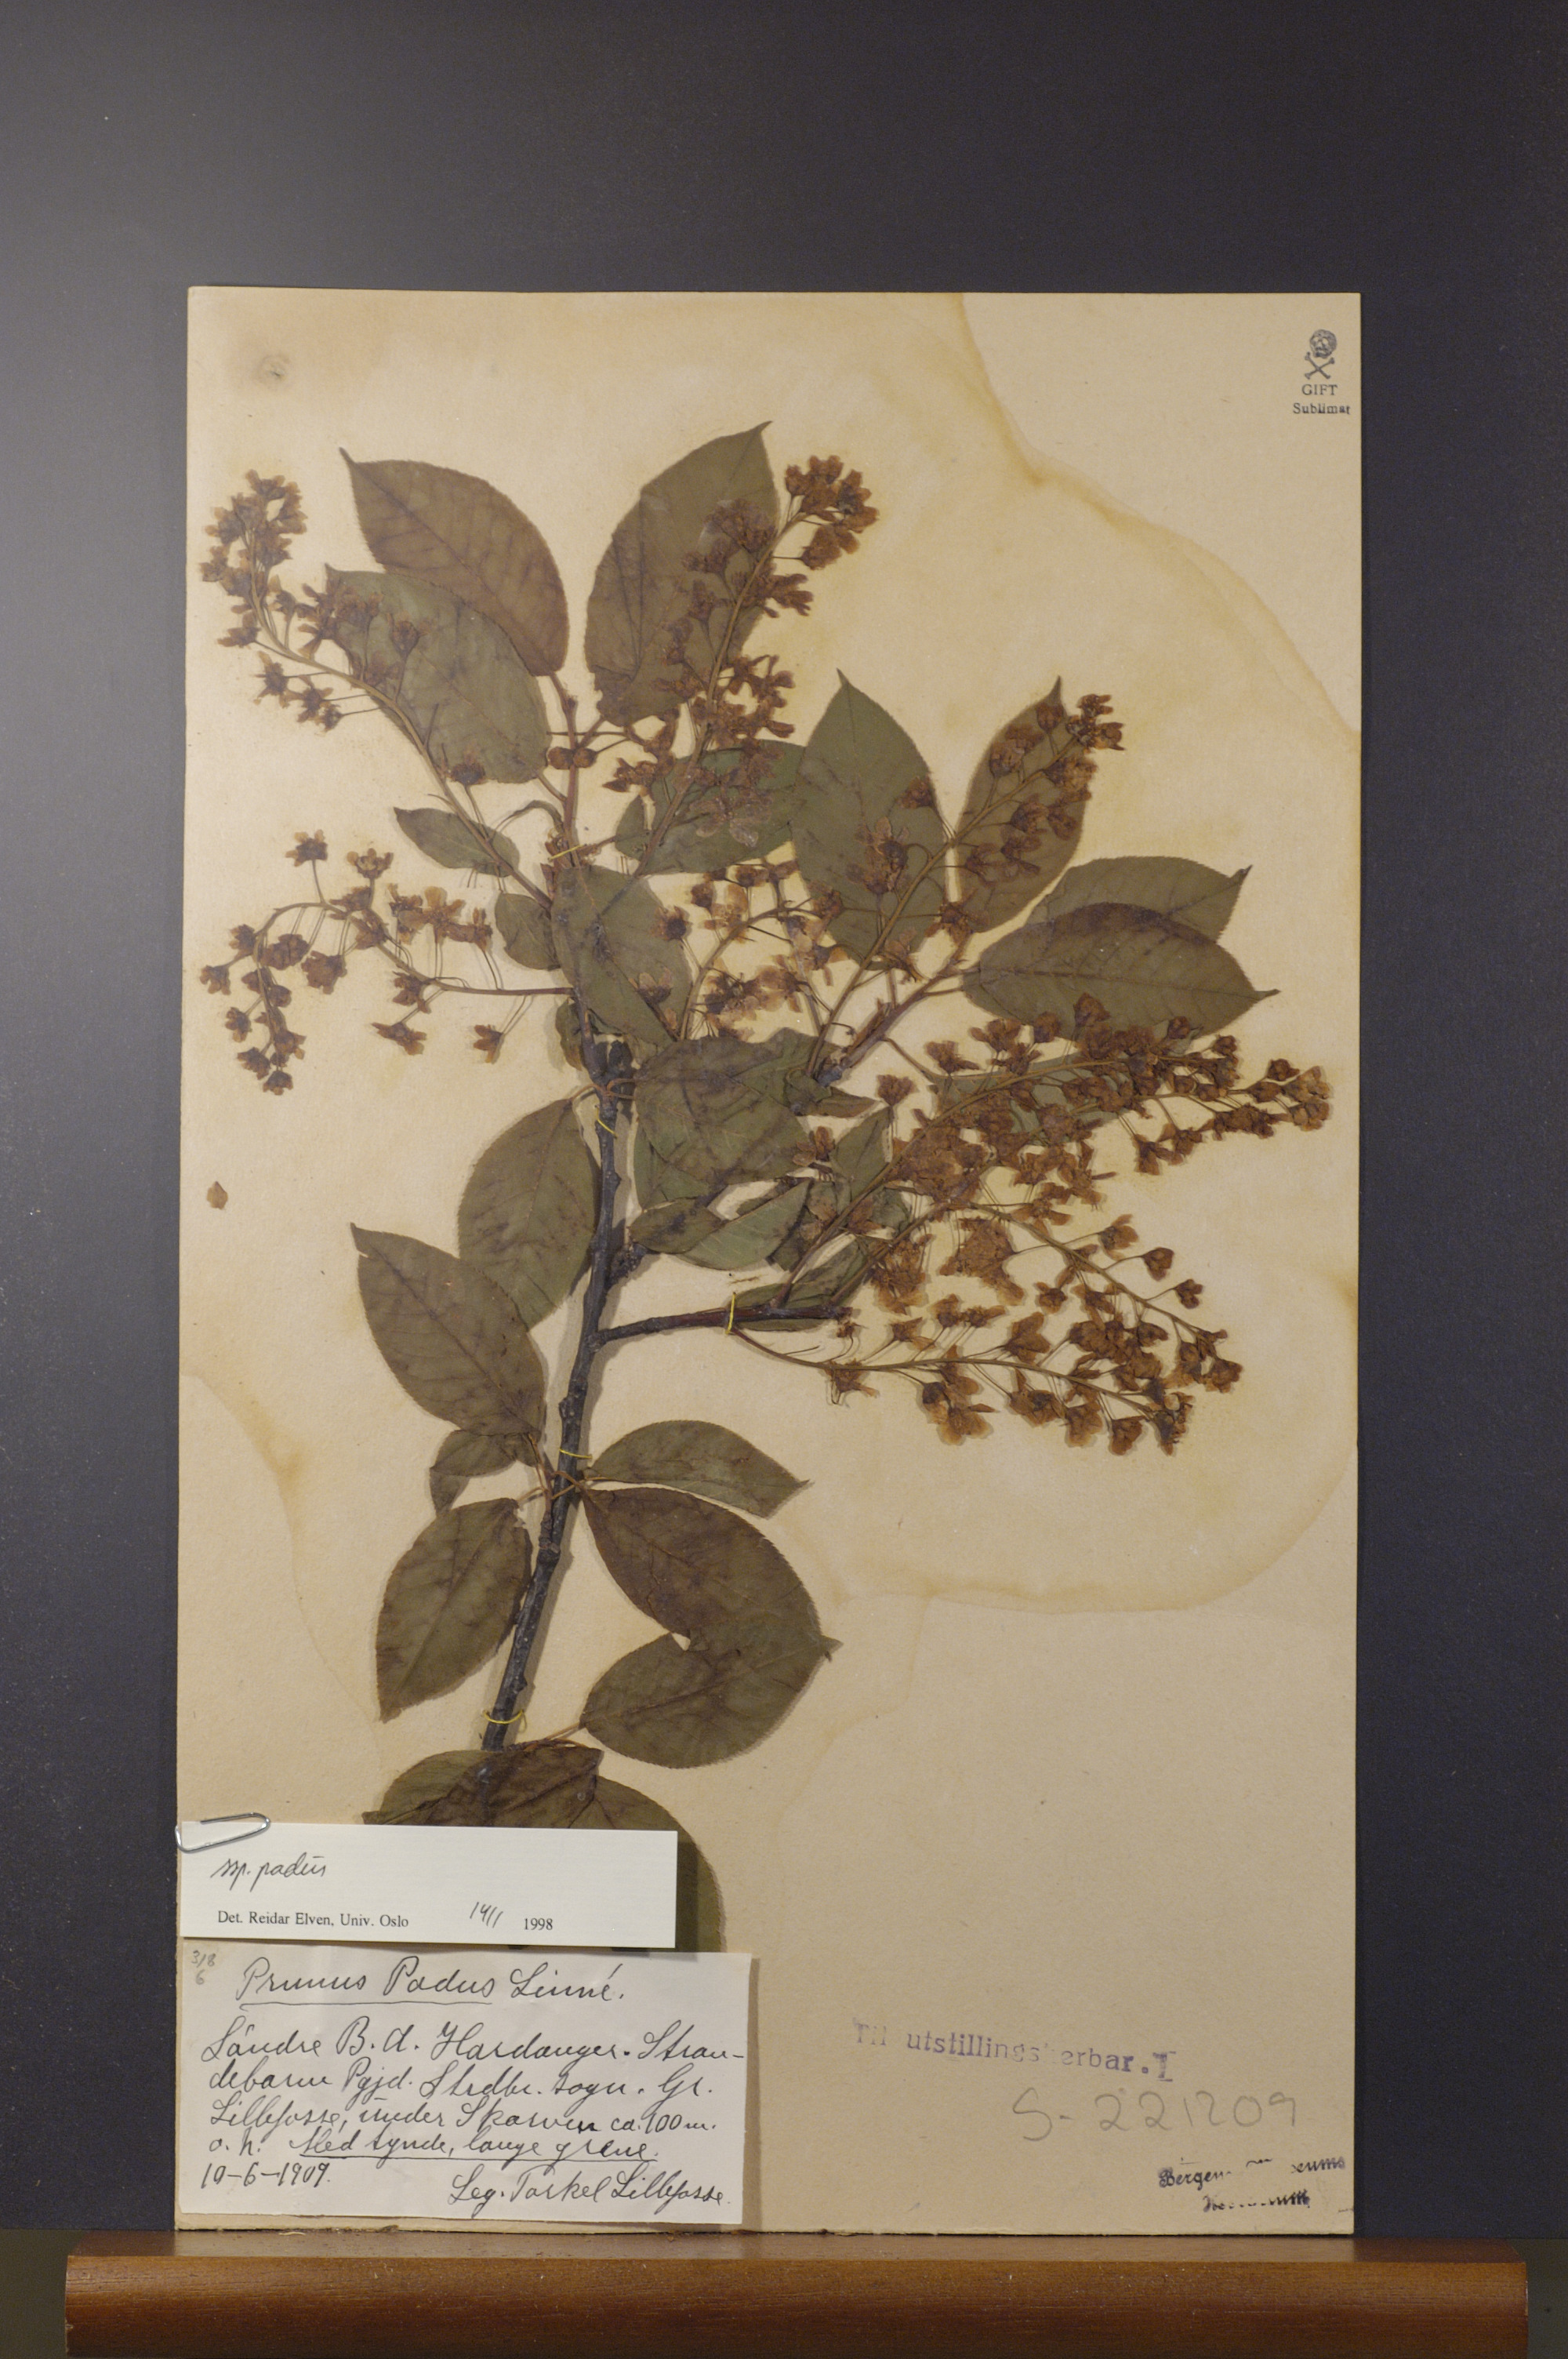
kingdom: Plantae
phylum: Tracheophyta
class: Magnoliopsida
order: Rosales
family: Rosaceae
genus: Prunus
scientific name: Prunus padus
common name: Bird cherry
